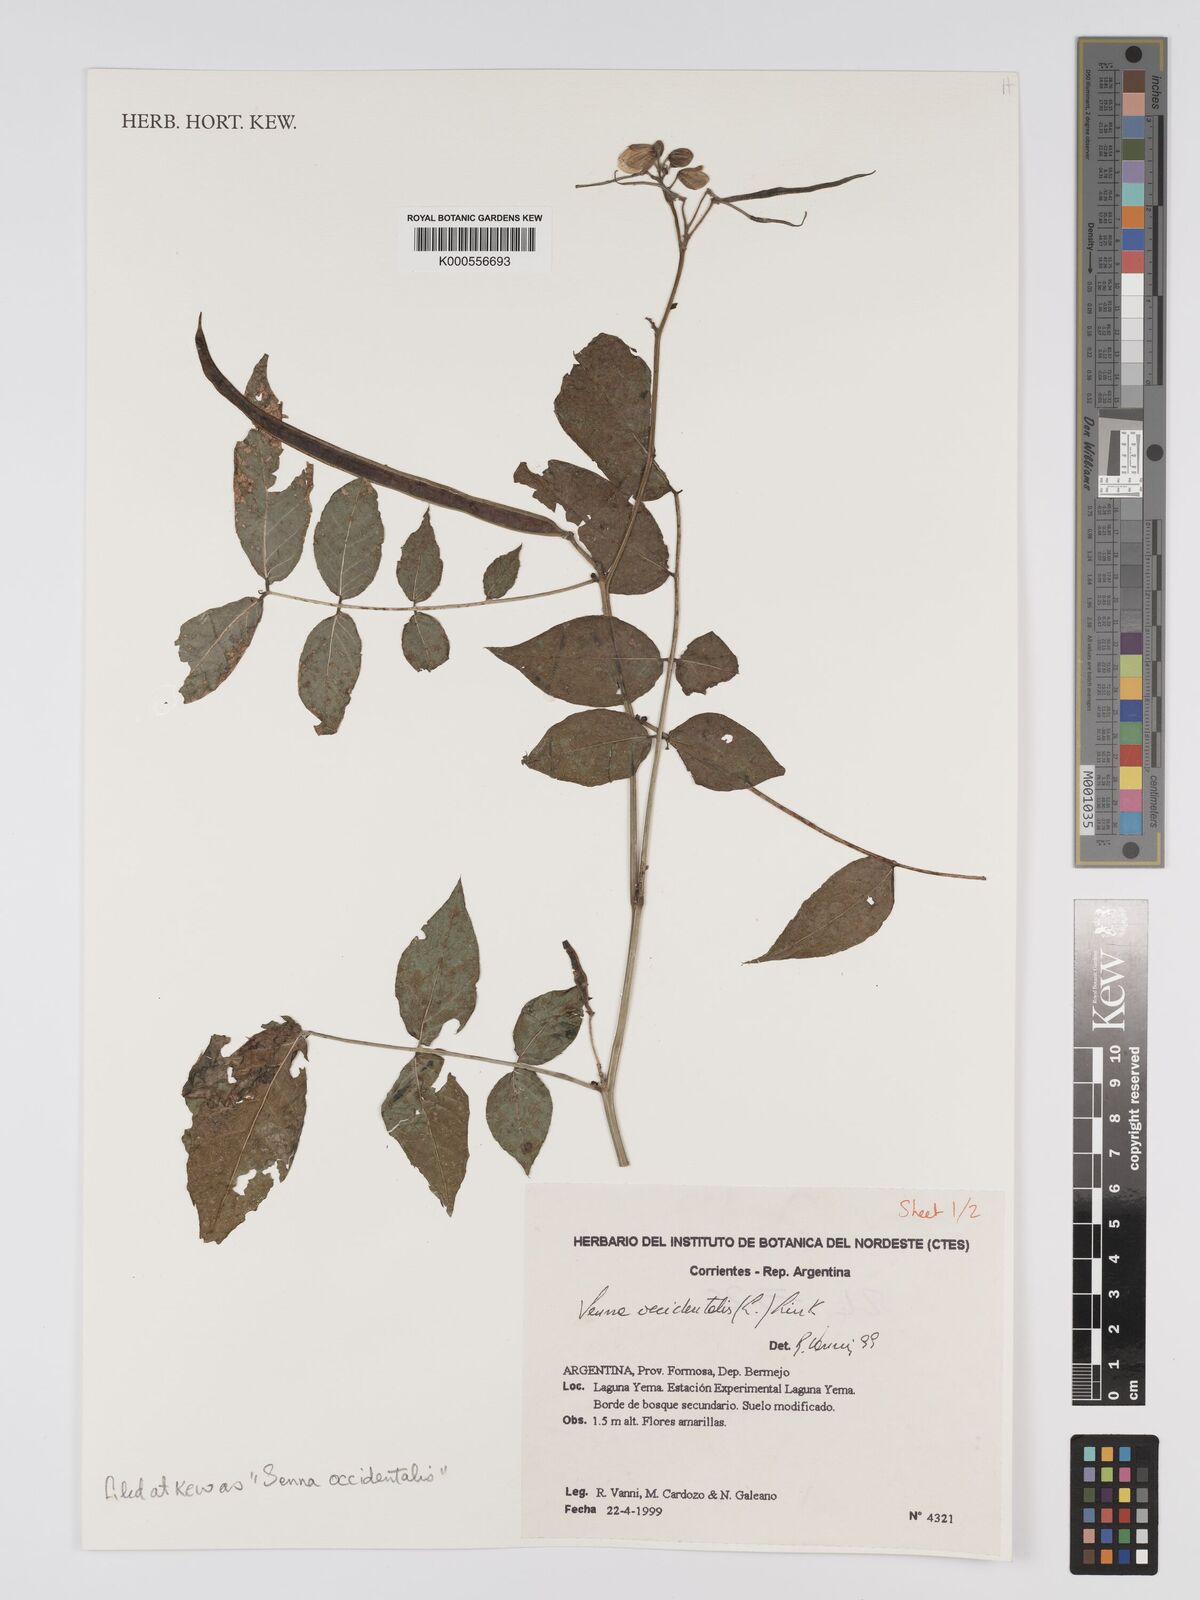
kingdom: Plantae
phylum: Tracheophyta
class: Magnoliopsida
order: Fabales
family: Fabaceae
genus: Senna
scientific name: Senna occidentalis
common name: Septicweed
